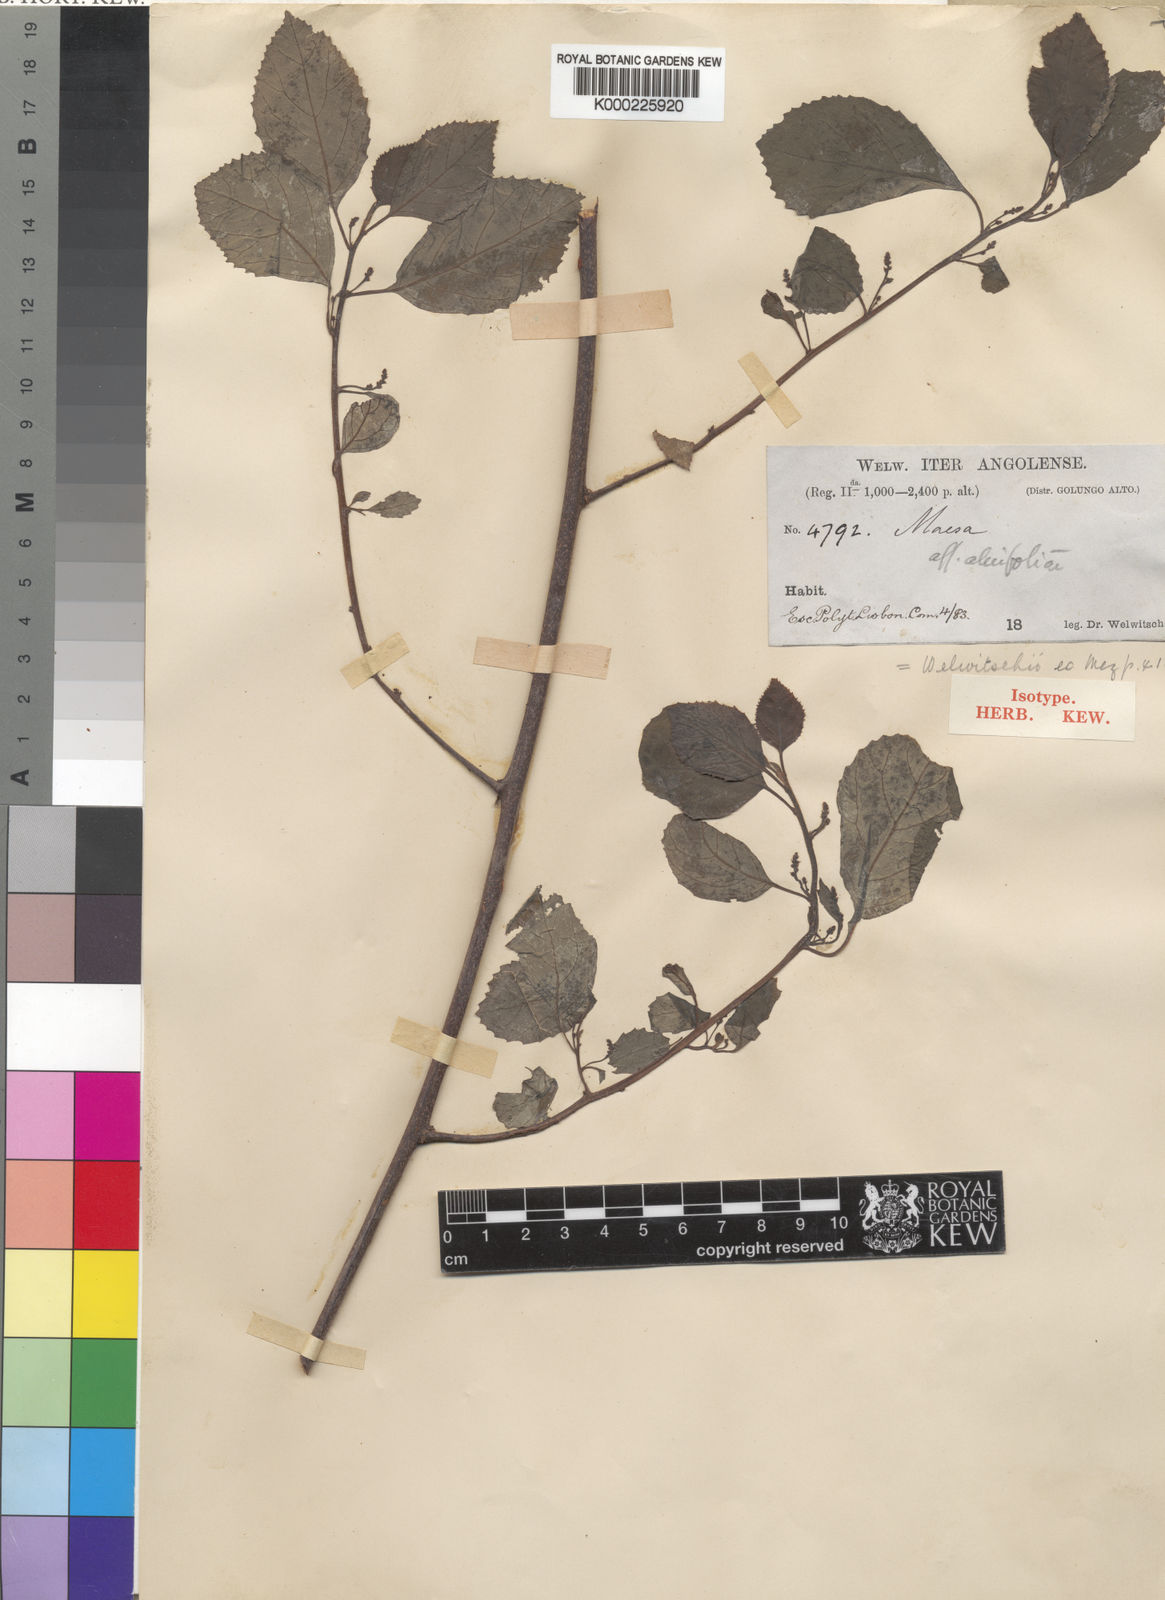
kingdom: Plantae
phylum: Tracheophyta
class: Magnoliopsida
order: Ericales
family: Primulaceae
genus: Maesa
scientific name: Maesa welwitschii
